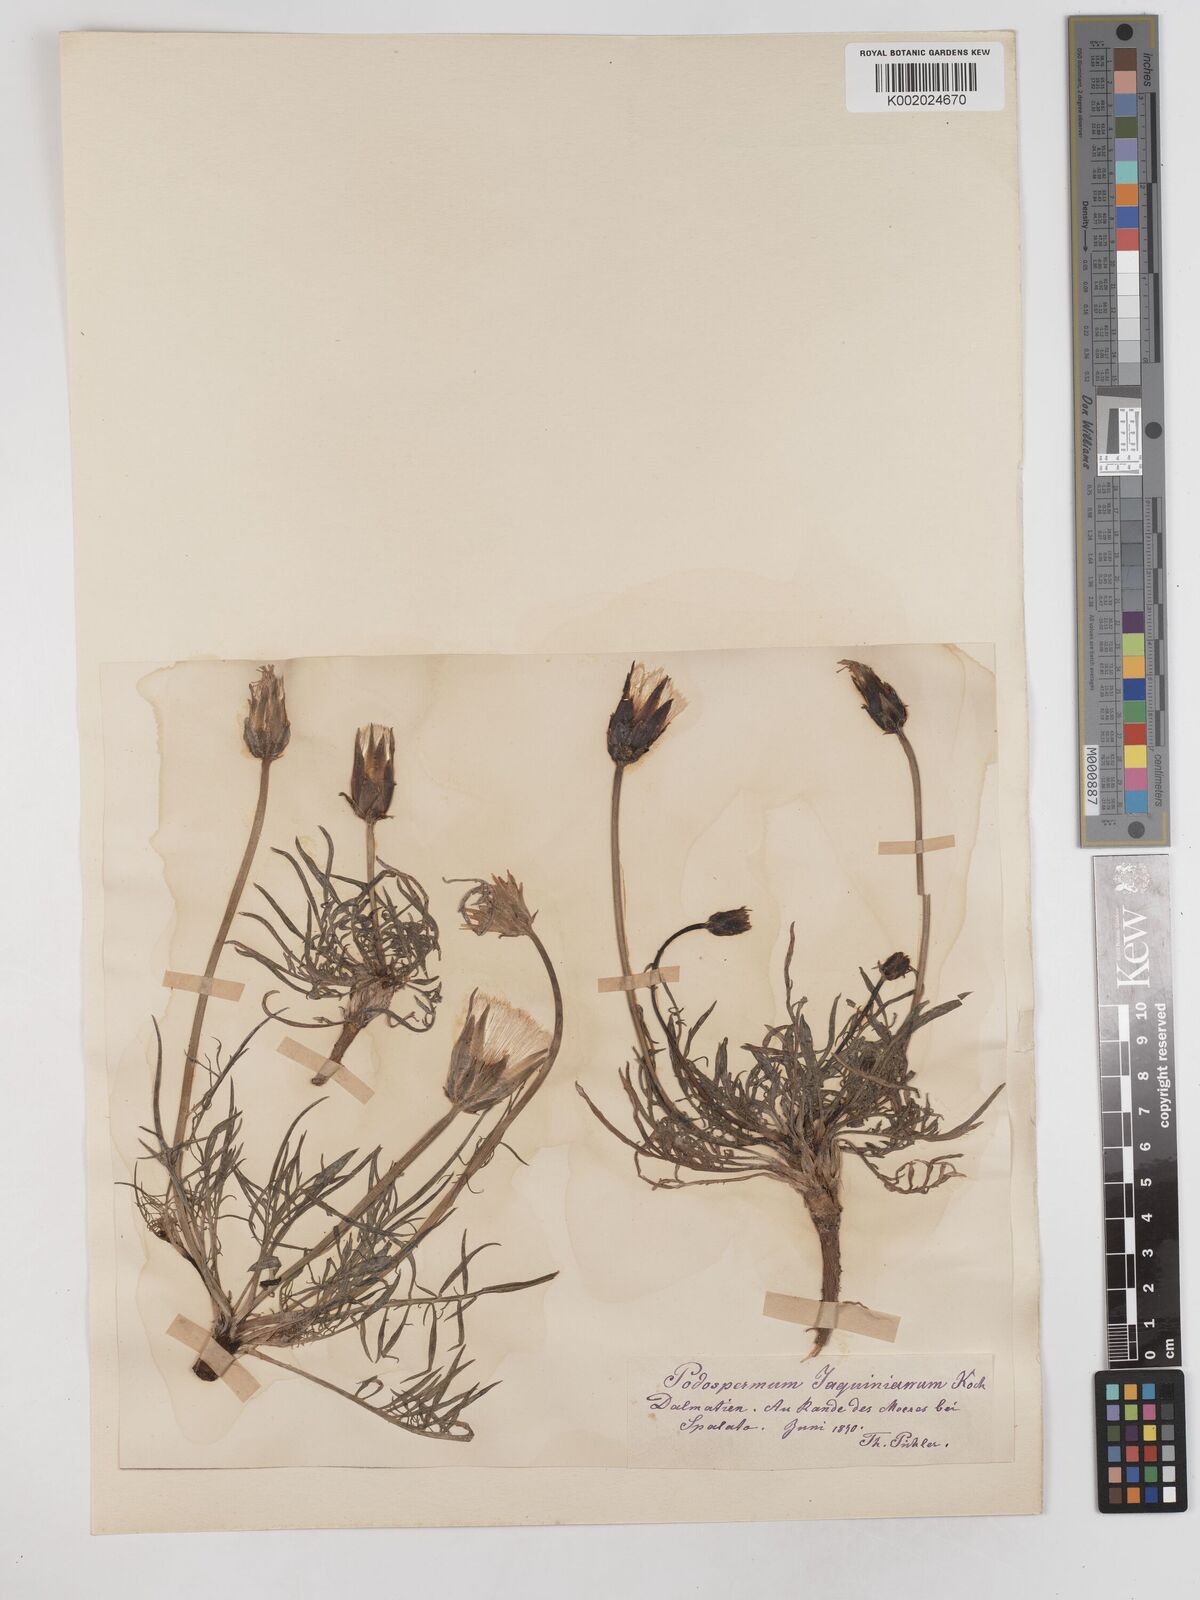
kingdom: Plantae
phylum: Tracheophyta
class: Magnoliopsida
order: Asterales
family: Asteraceae
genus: Scorzonera
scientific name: Scorzonera cana
